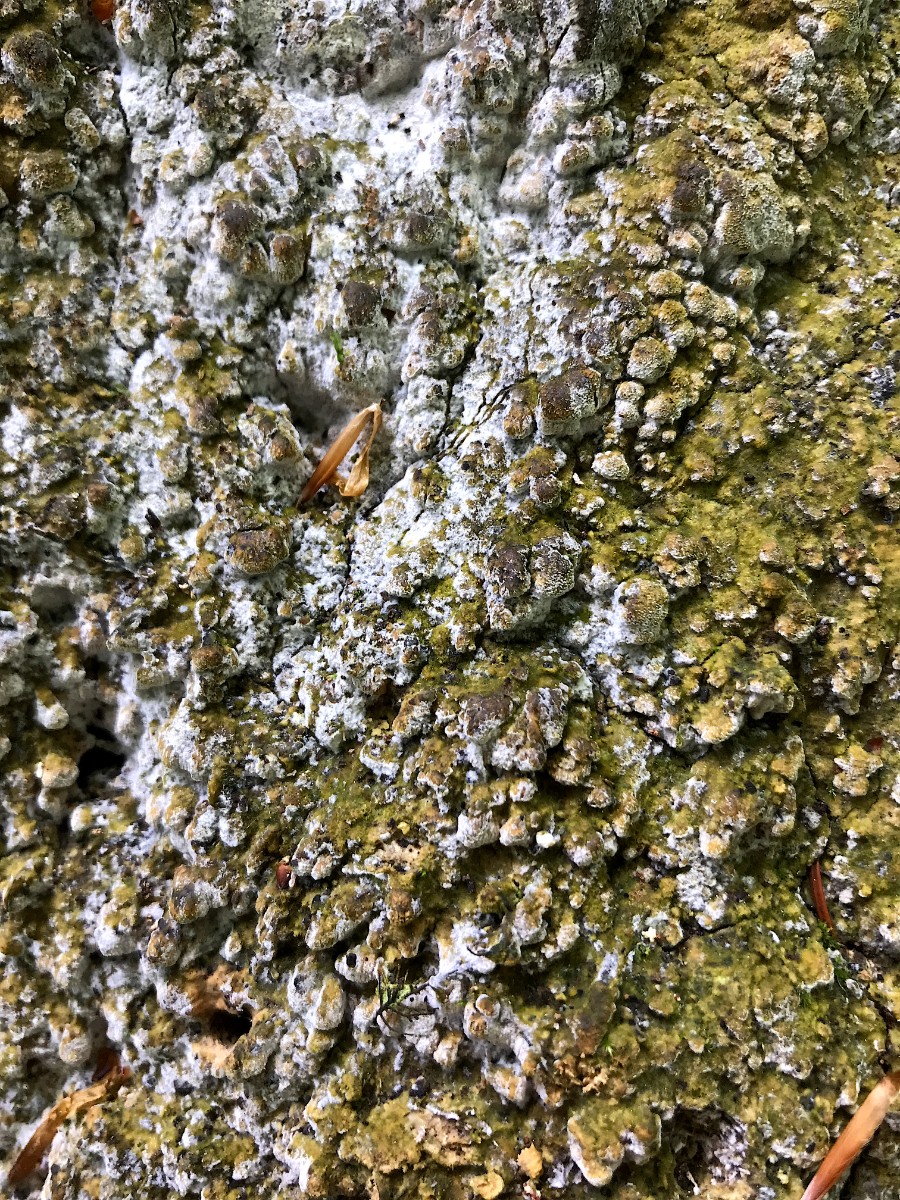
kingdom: Fungi
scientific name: Fungi
